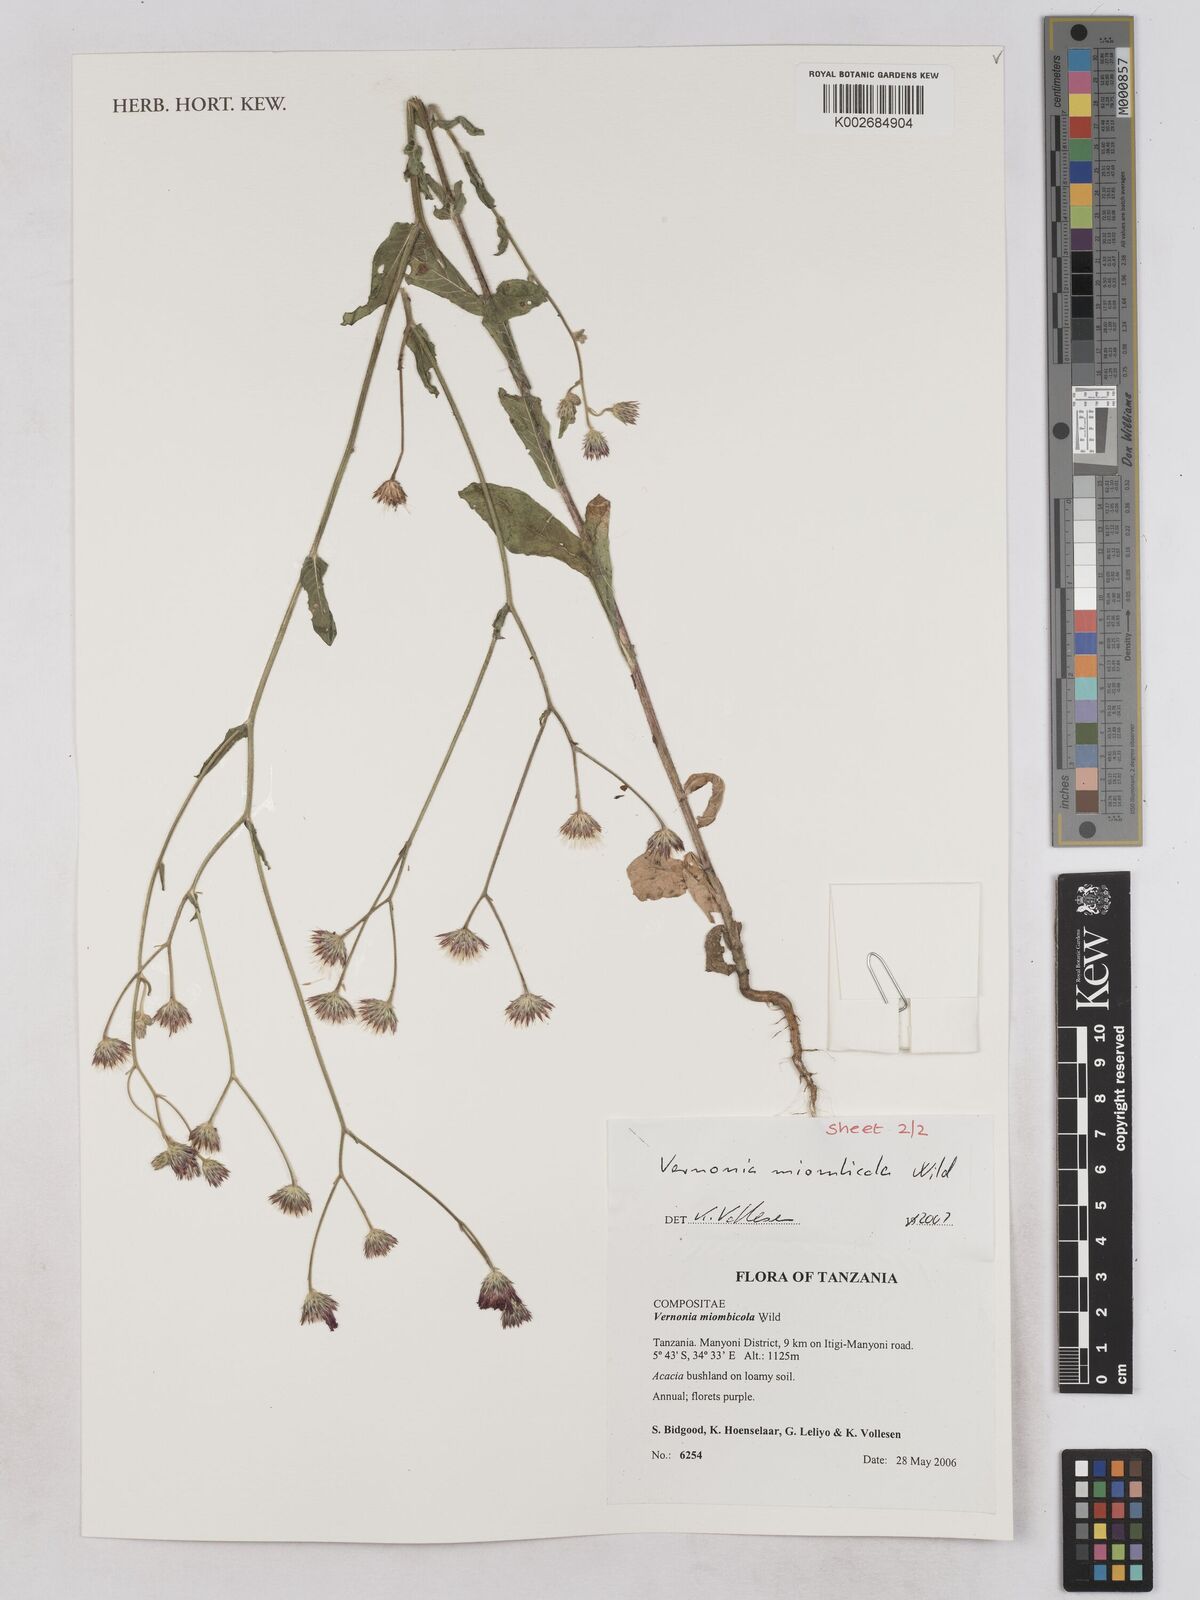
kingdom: Plantae
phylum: Tracheophyta
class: Magnoliopsida
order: Asterales
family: Asteraceae
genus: Vernonia
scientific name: Vernonia miombicola
